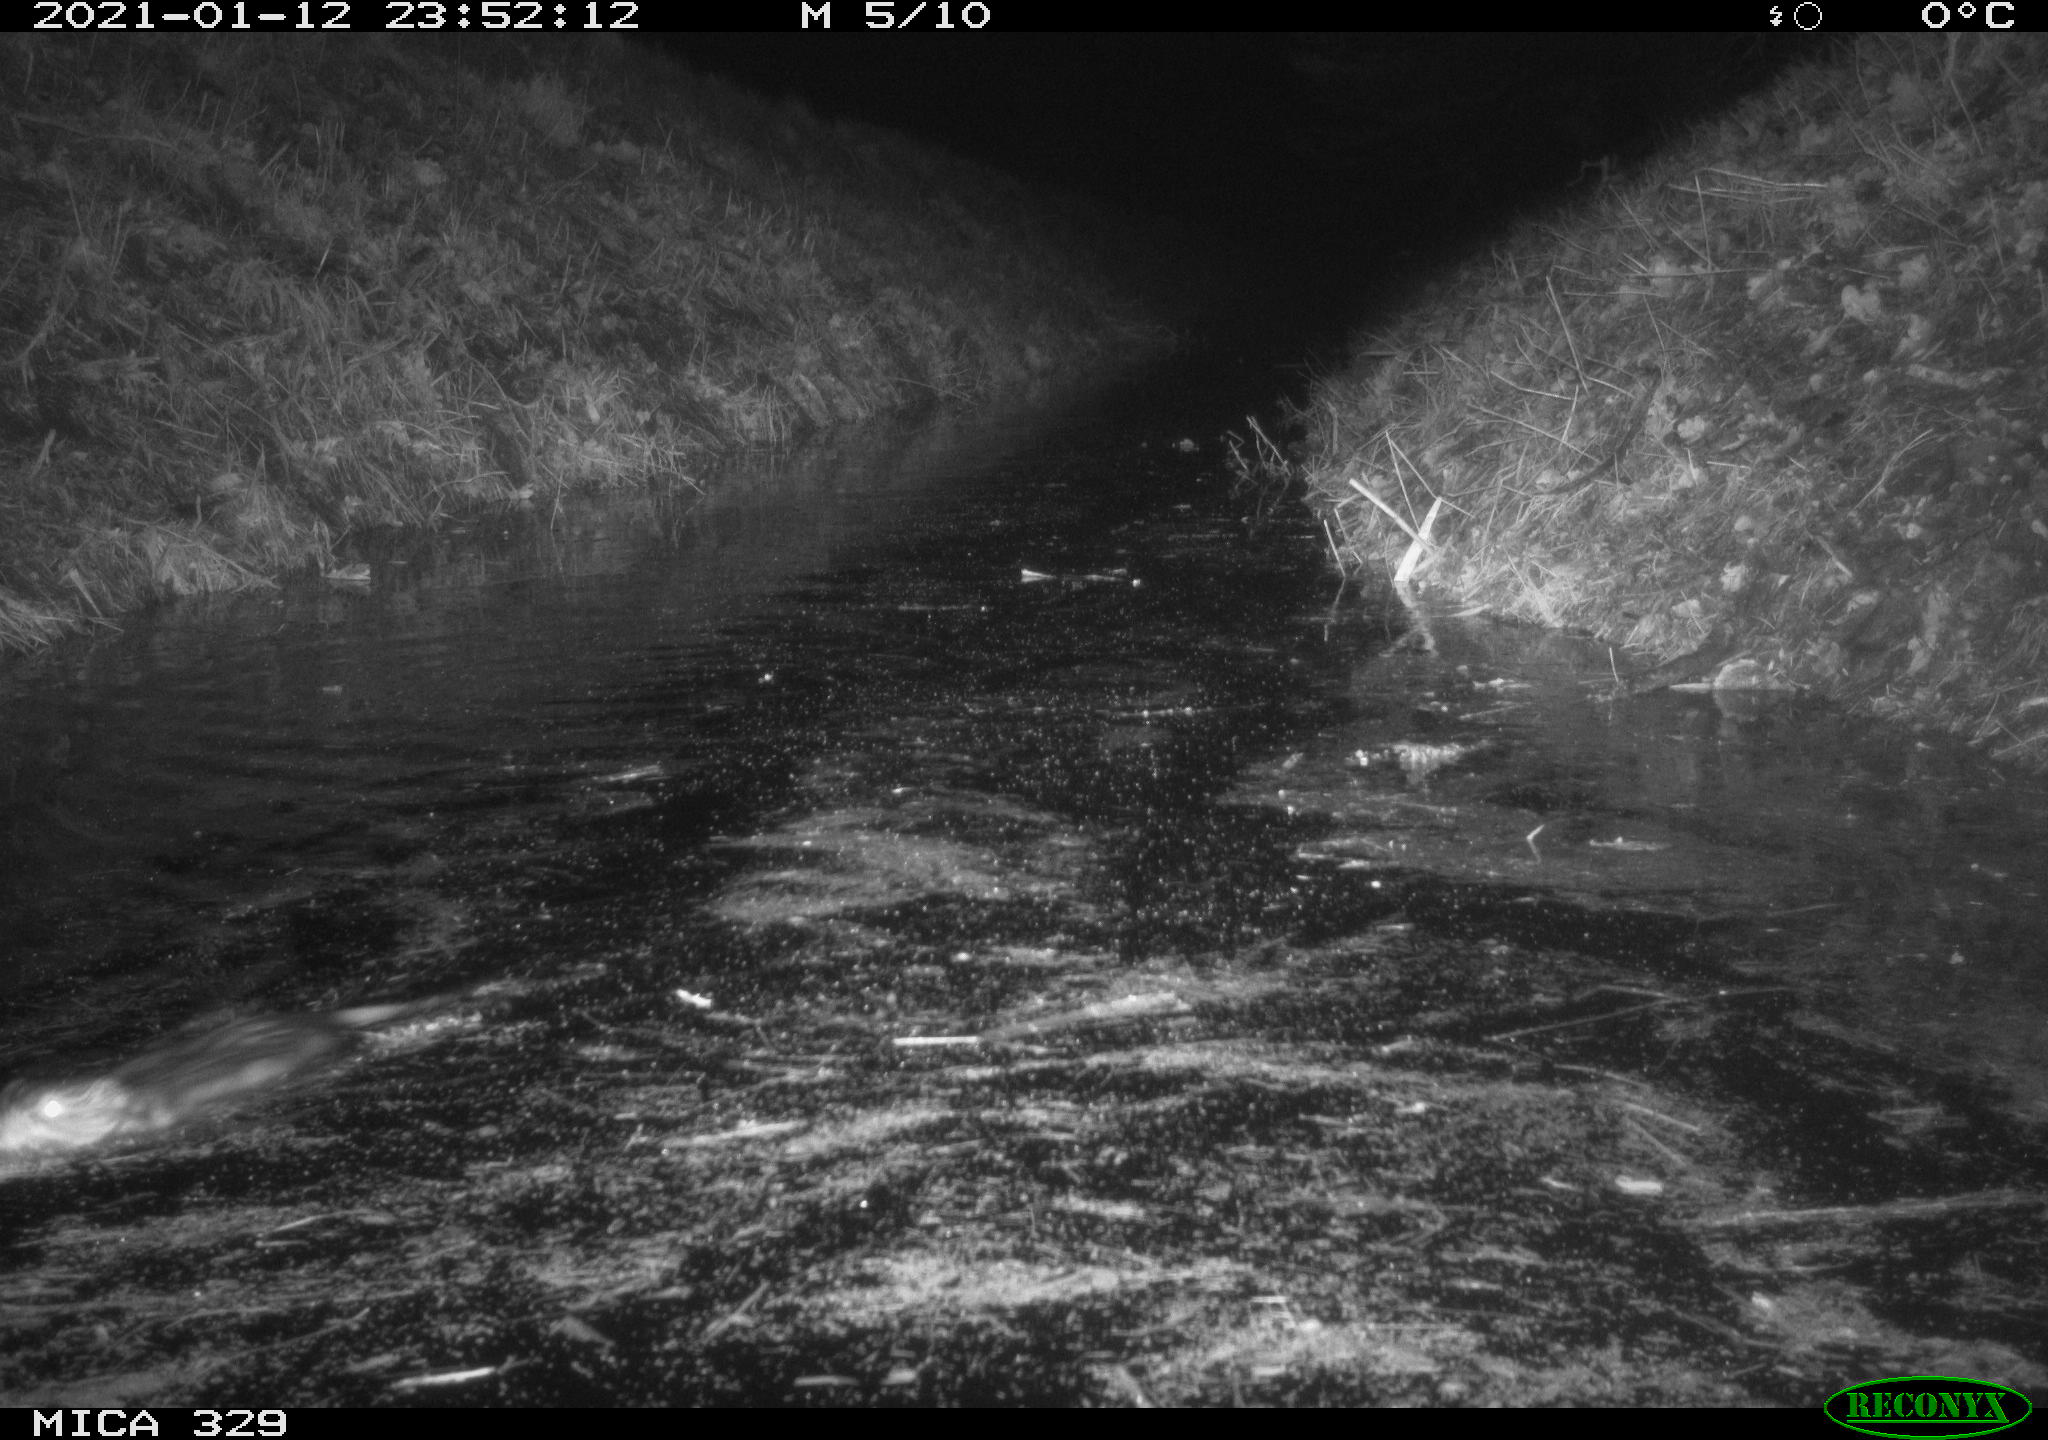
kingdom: Animalia
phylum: Chordata
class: Mammalia
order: Rodentia
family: Cricetidae
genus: Ondatra
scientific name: Ondatra zibethicus
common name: Muskrat
